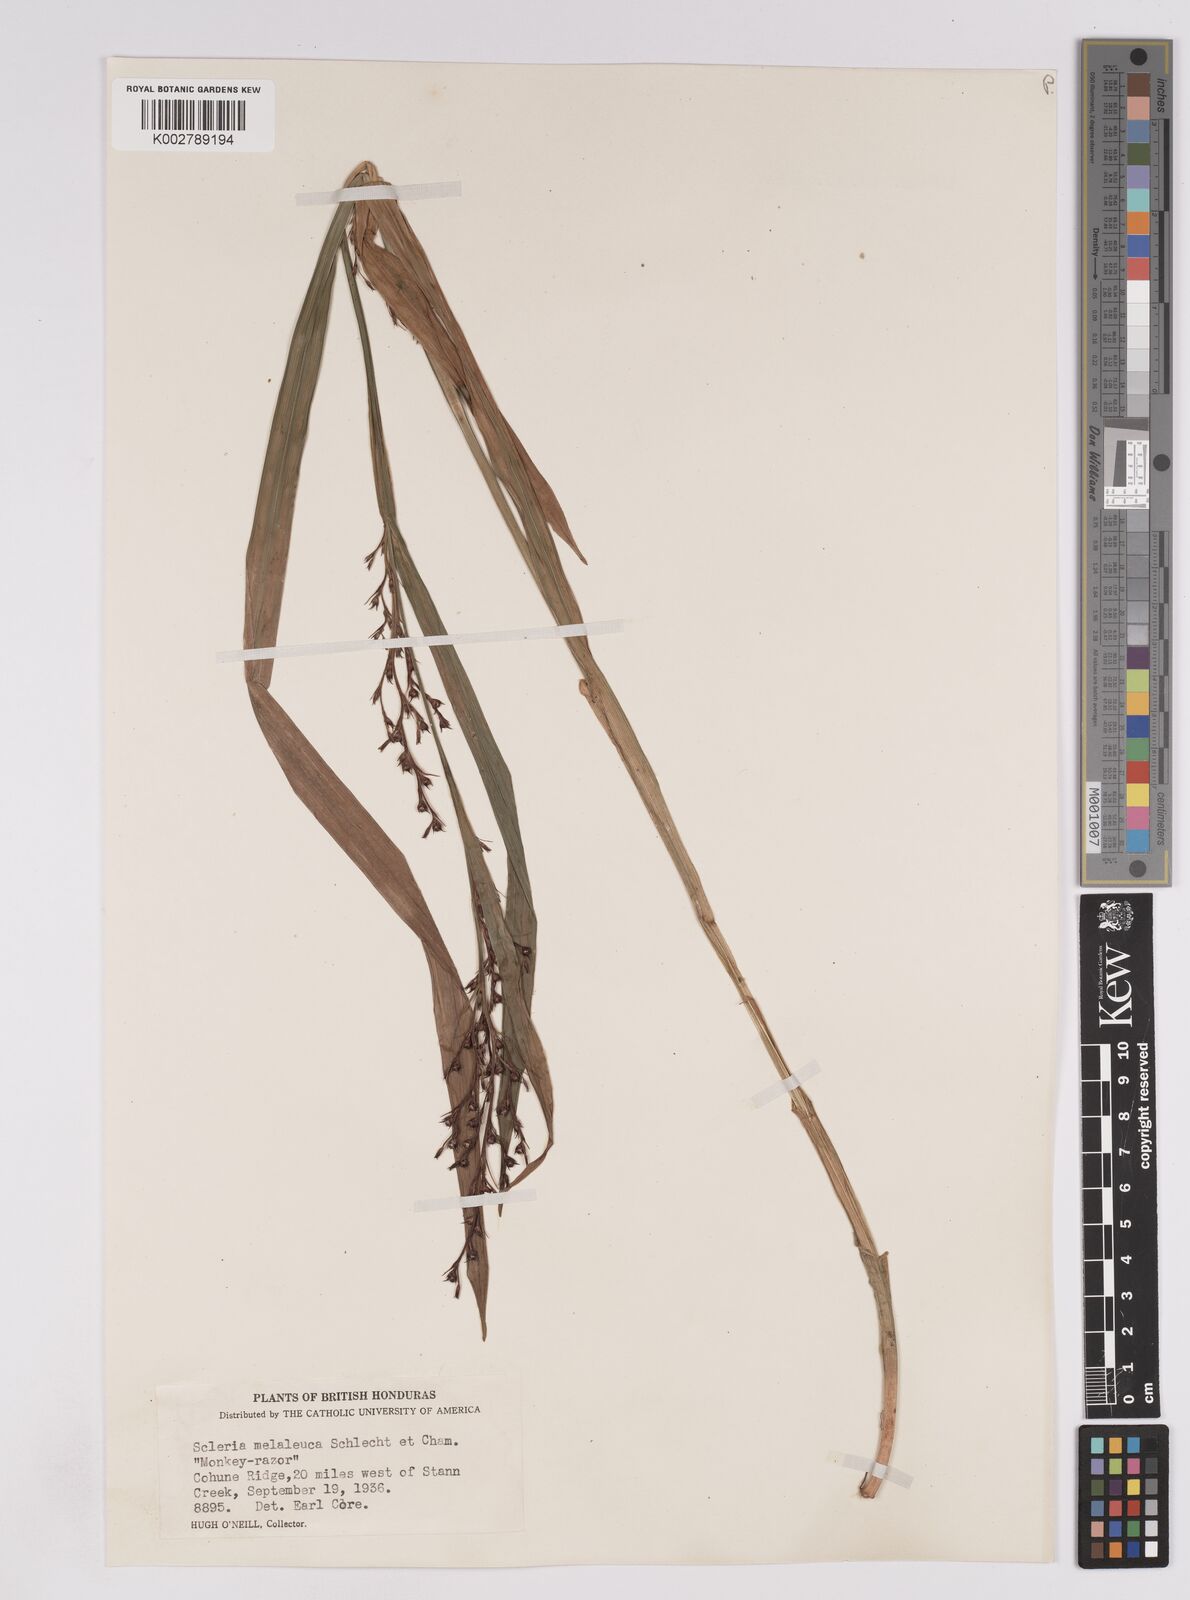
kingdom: Plantae
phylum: Tracheophyta
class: Liliopsida
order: Poales
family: Cyperaceae
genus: Scleria
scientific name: Scleria gaertneri
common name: Cortadera blanca
